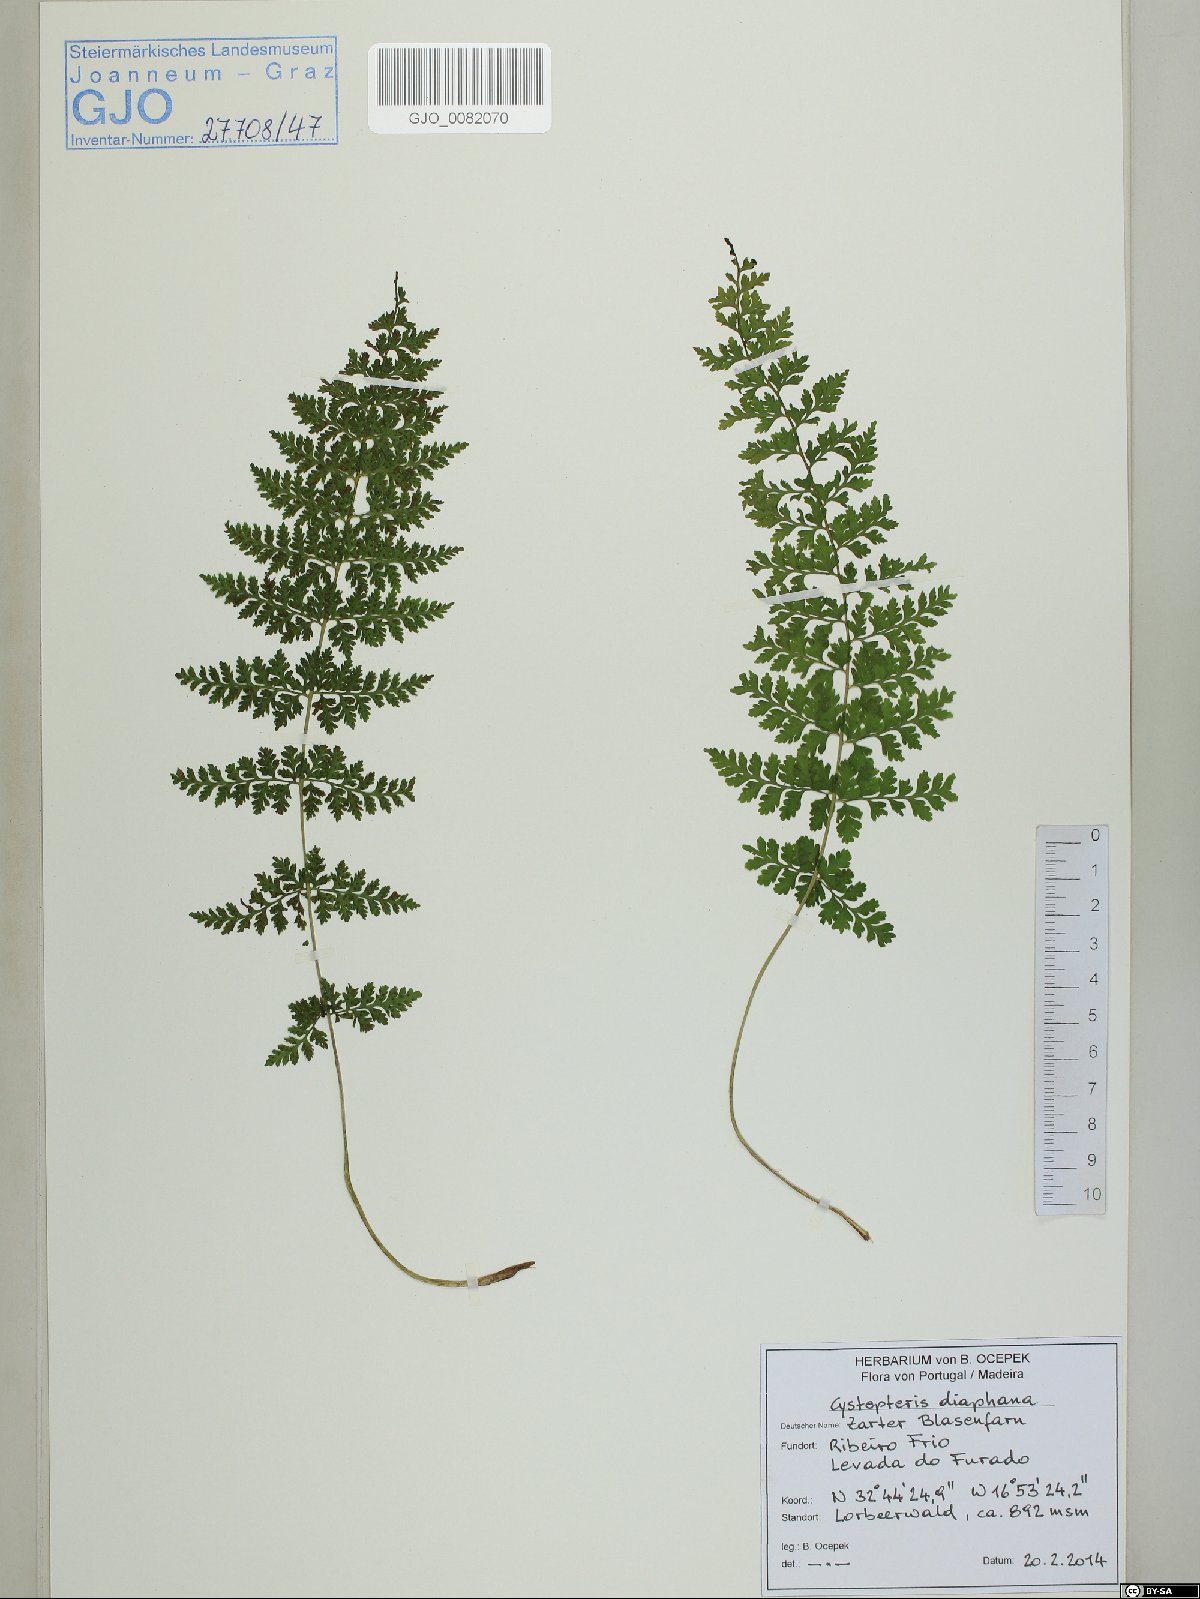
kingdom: Plantae
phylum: Tracheophyta
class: Polypodiopsida
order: Polypodiales
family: Cystopteridaceae
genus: Cystopteris
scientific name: Cystopteris diaphana
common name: Greenish bladder-fern
